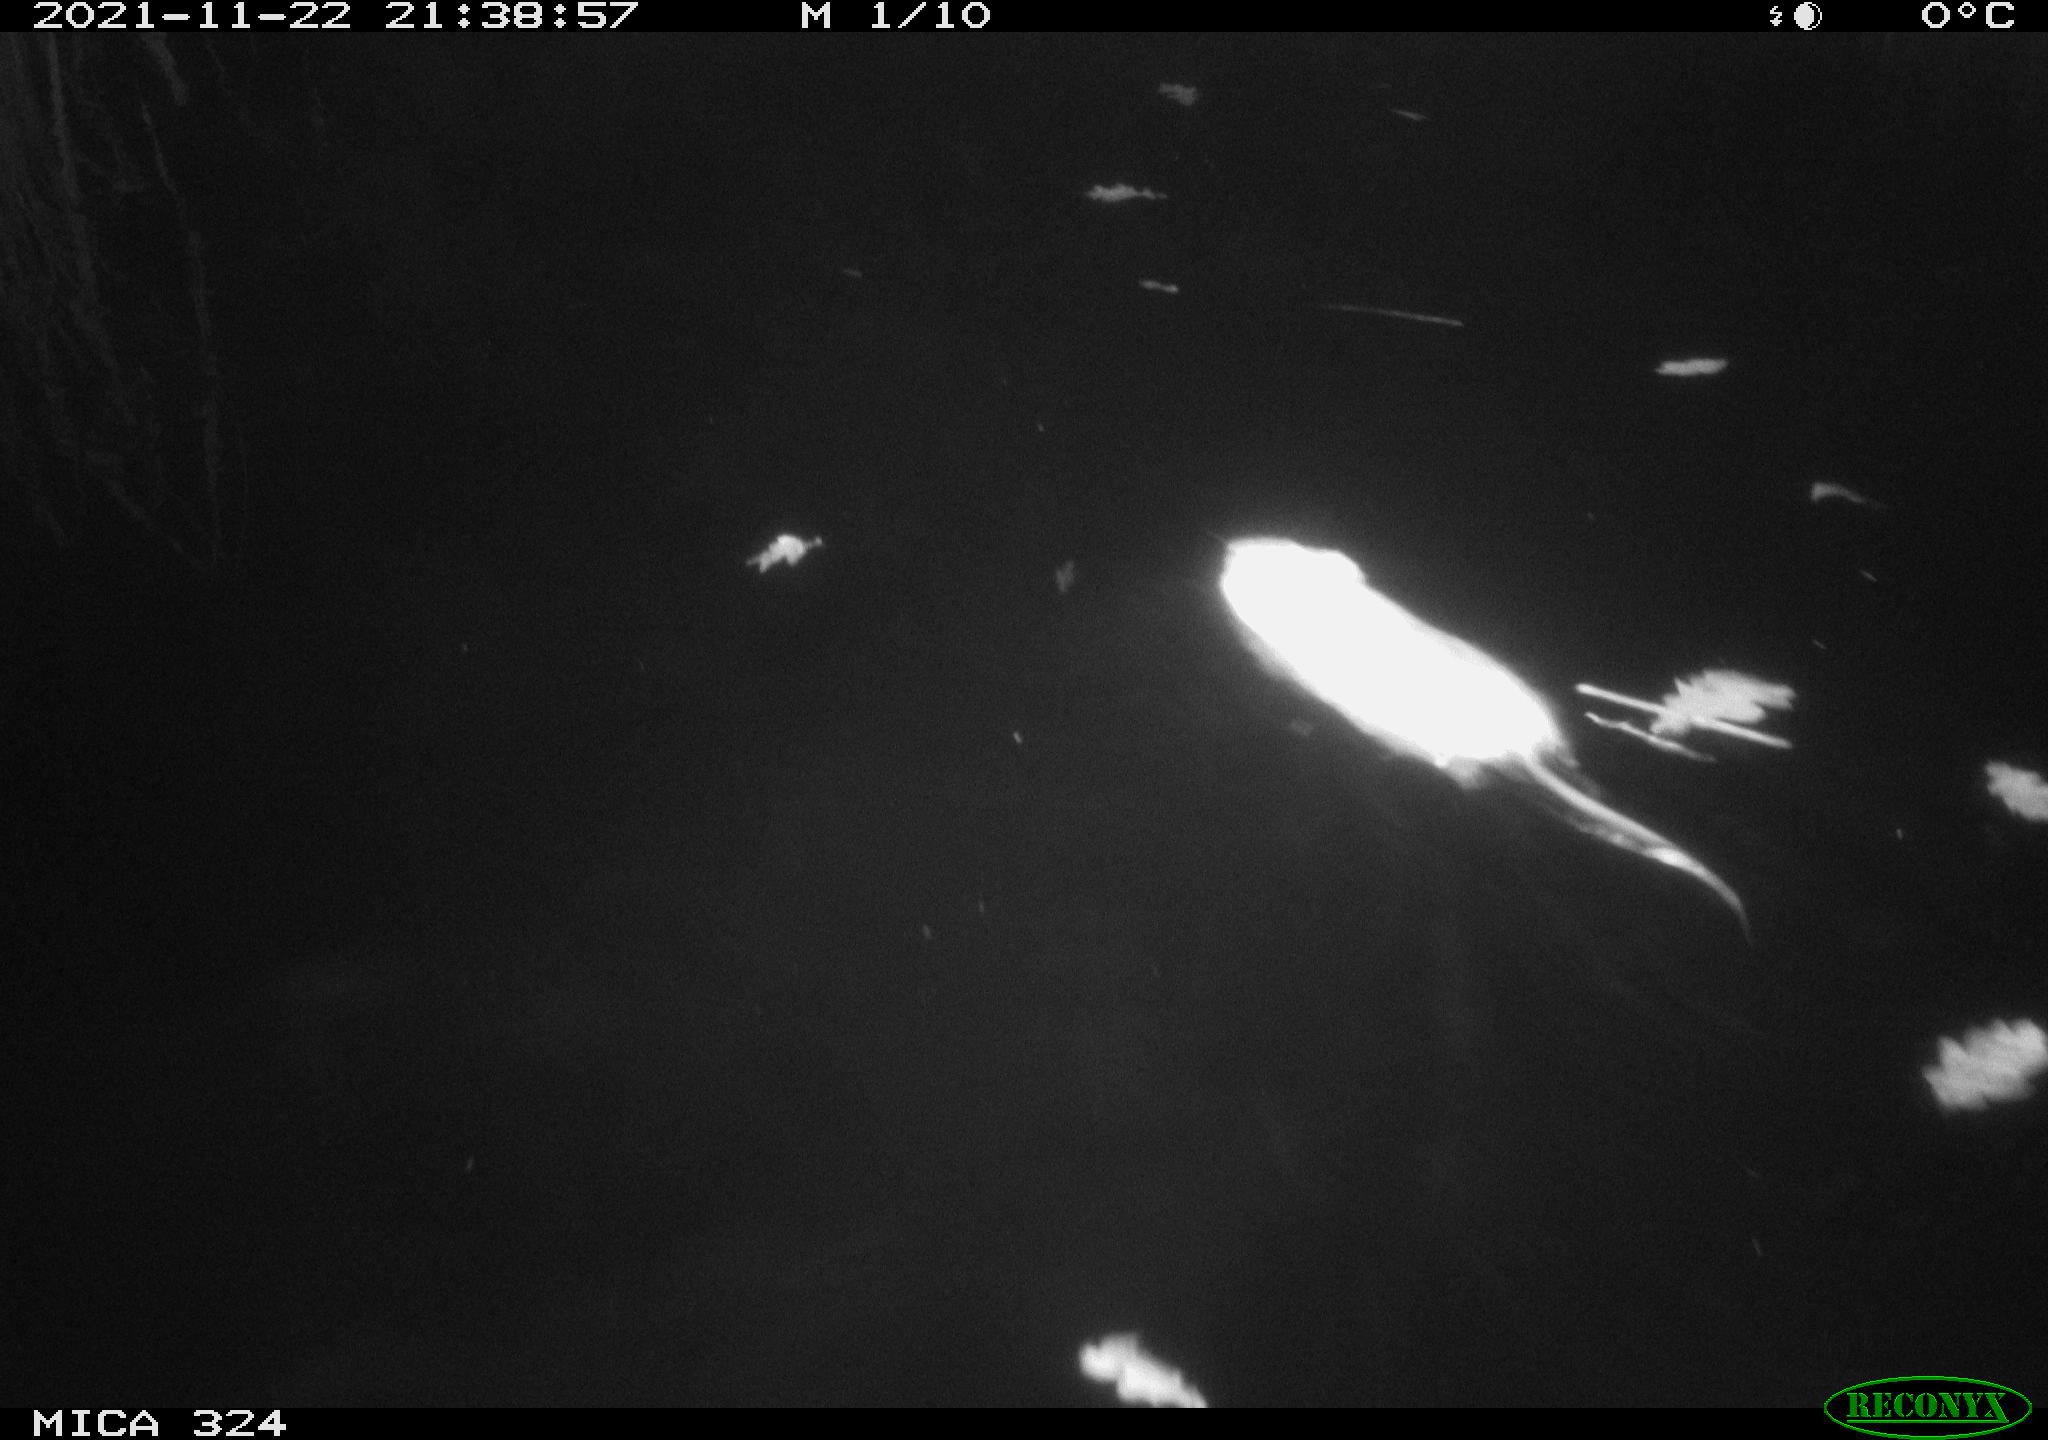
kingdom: Animalia
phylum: Chordata
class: Mammalia
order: Rodentia
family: Cricetidae
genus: Ondatra
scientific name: Ondatra zibethicus
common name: Muskrat
